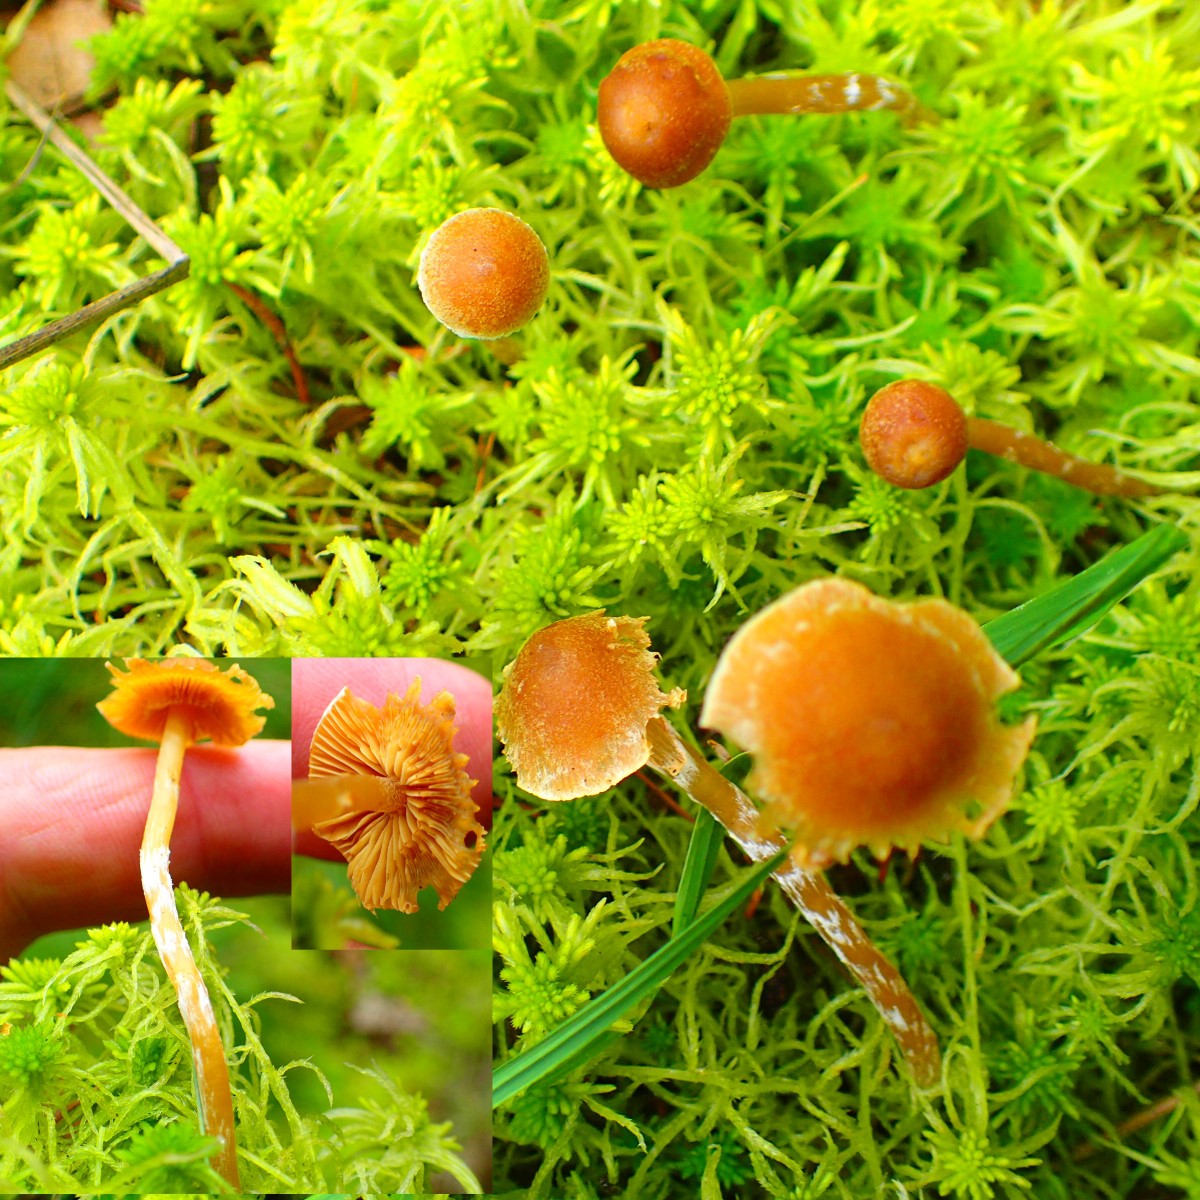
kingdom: Fungi
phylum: Basidiomycota
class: Agaricomycetes
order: Agaricales
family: Hymenogastraceae
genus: Galerina
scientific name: Galerina paludosa
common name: mose-hjelmhat
